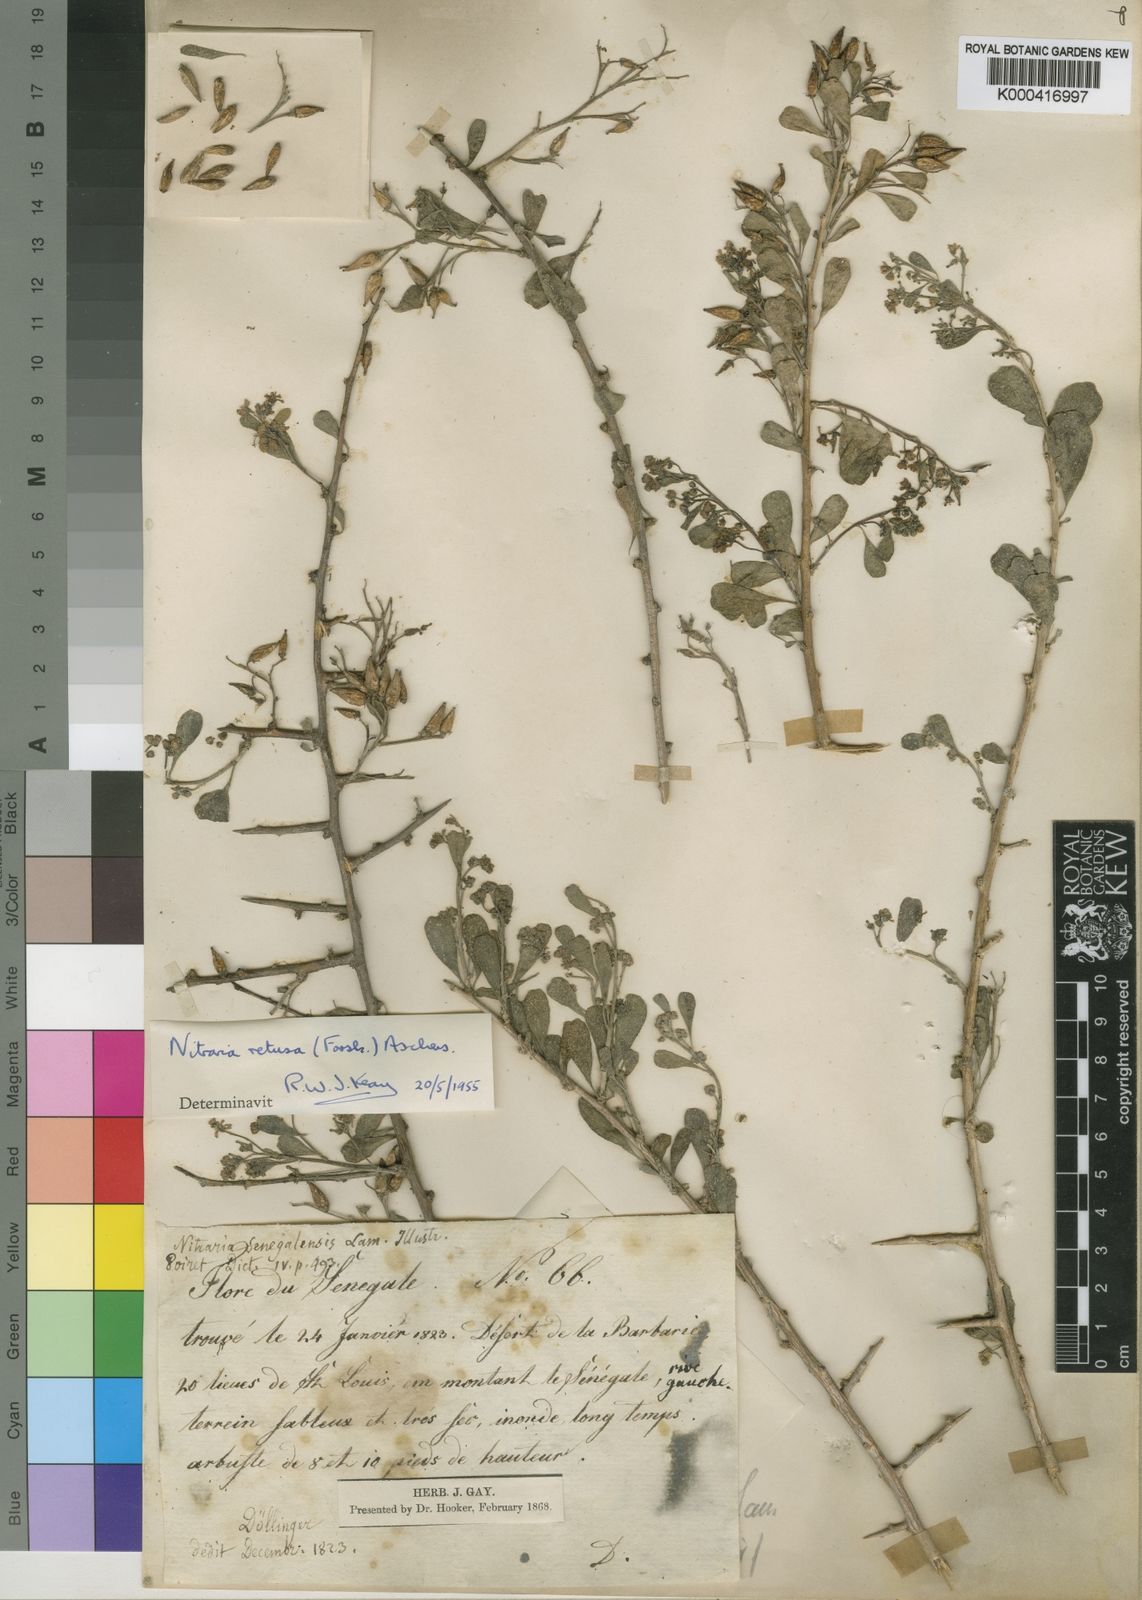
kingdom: Plantae
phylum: Tracheophyta
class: Magnoliopsida
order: Sapindales
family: Nitrariaceae
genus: Nitraria
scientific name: Nitraria
